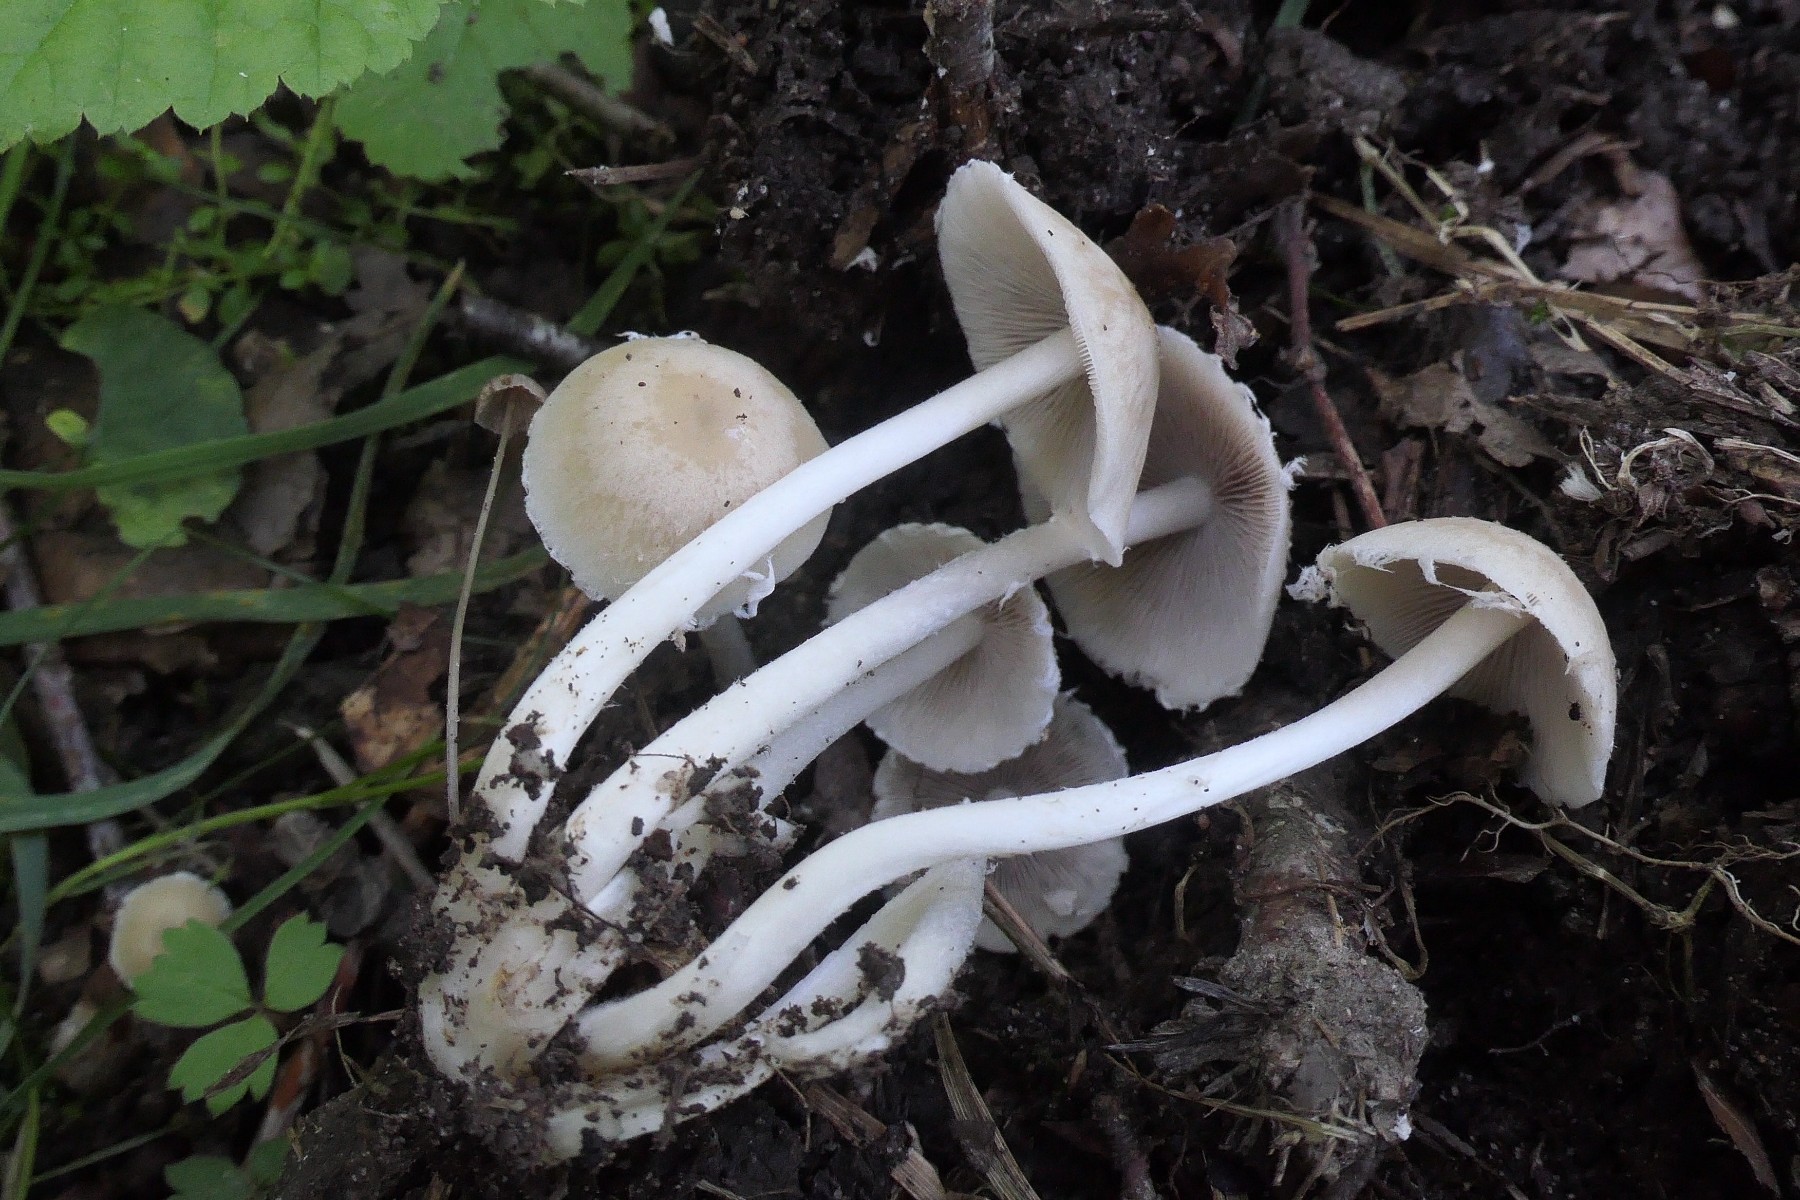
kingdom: Fungi
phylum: Basidiomycota
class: Agaricomycetes
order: Agaricales
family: Psathyrellaceae
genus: Candolleomyces
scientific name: Candolleomyces candolleanus
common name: Candolles mørkhat
